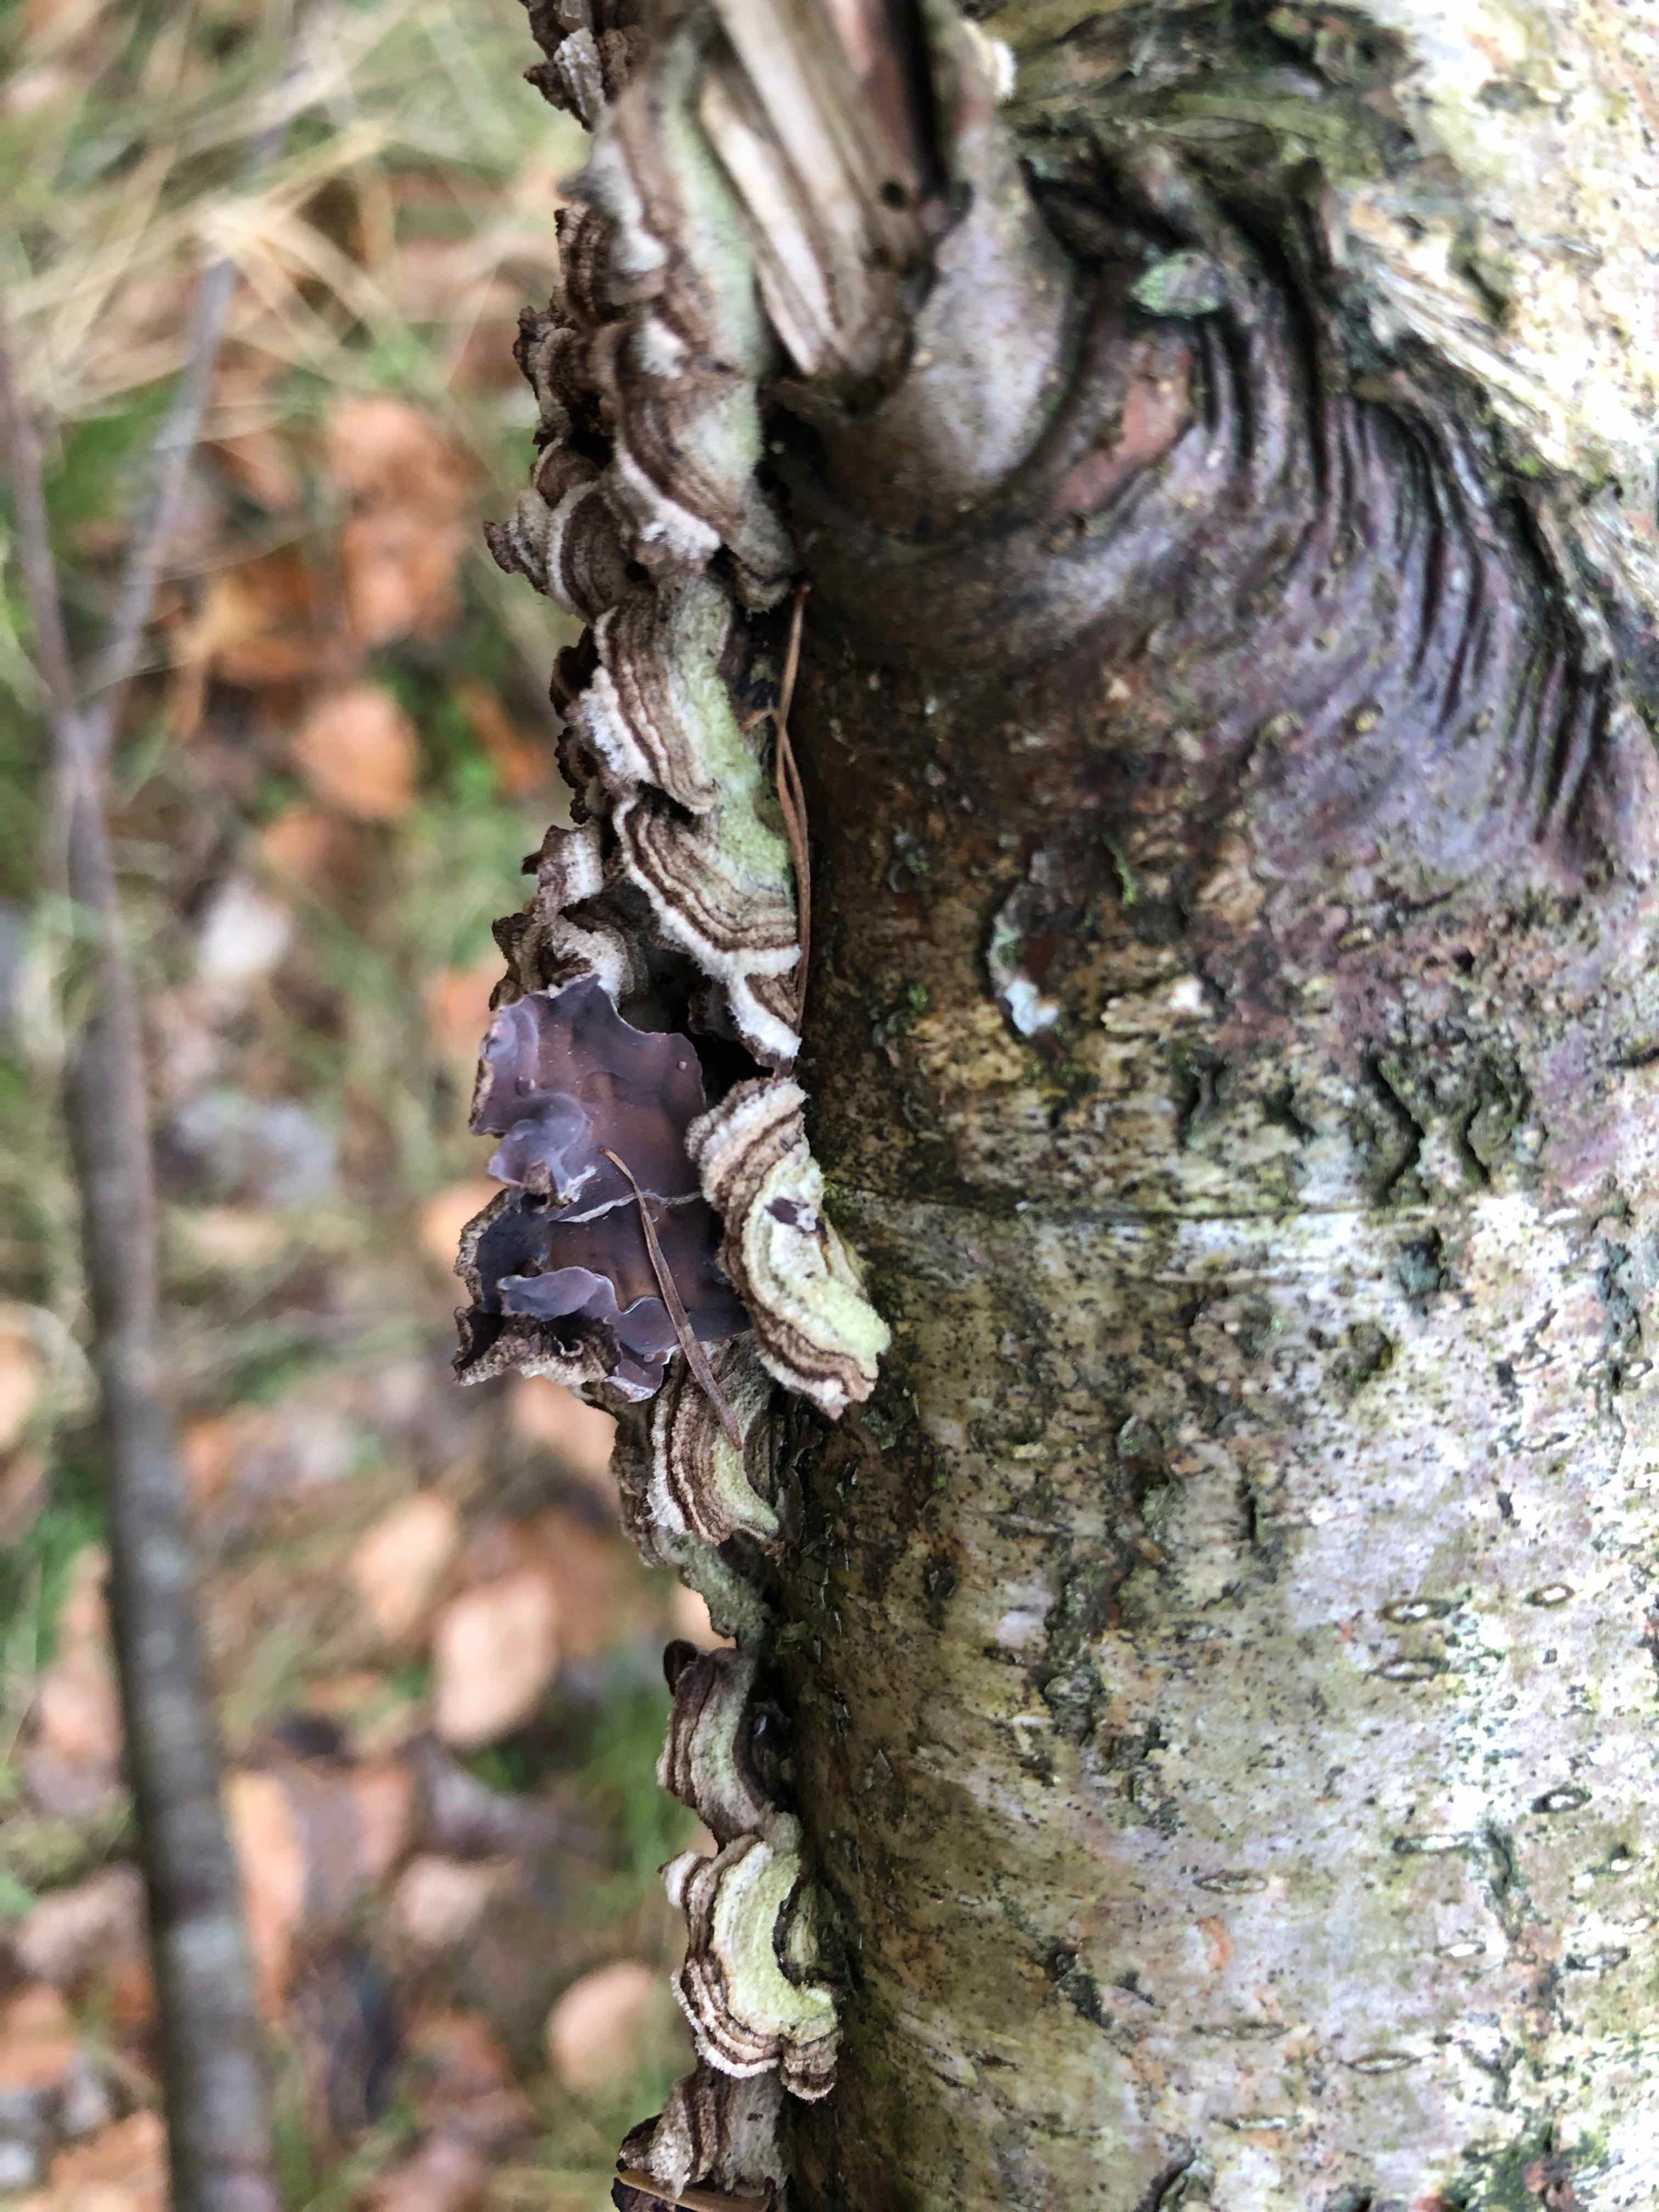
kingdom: Fungi
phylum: Basidiomycota
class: Agaricomycetes
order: Agaricales
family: Cyphellaceae
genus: Chondrostereum
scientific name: Chondrostereum purpureum
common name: purpurlædersvamp
